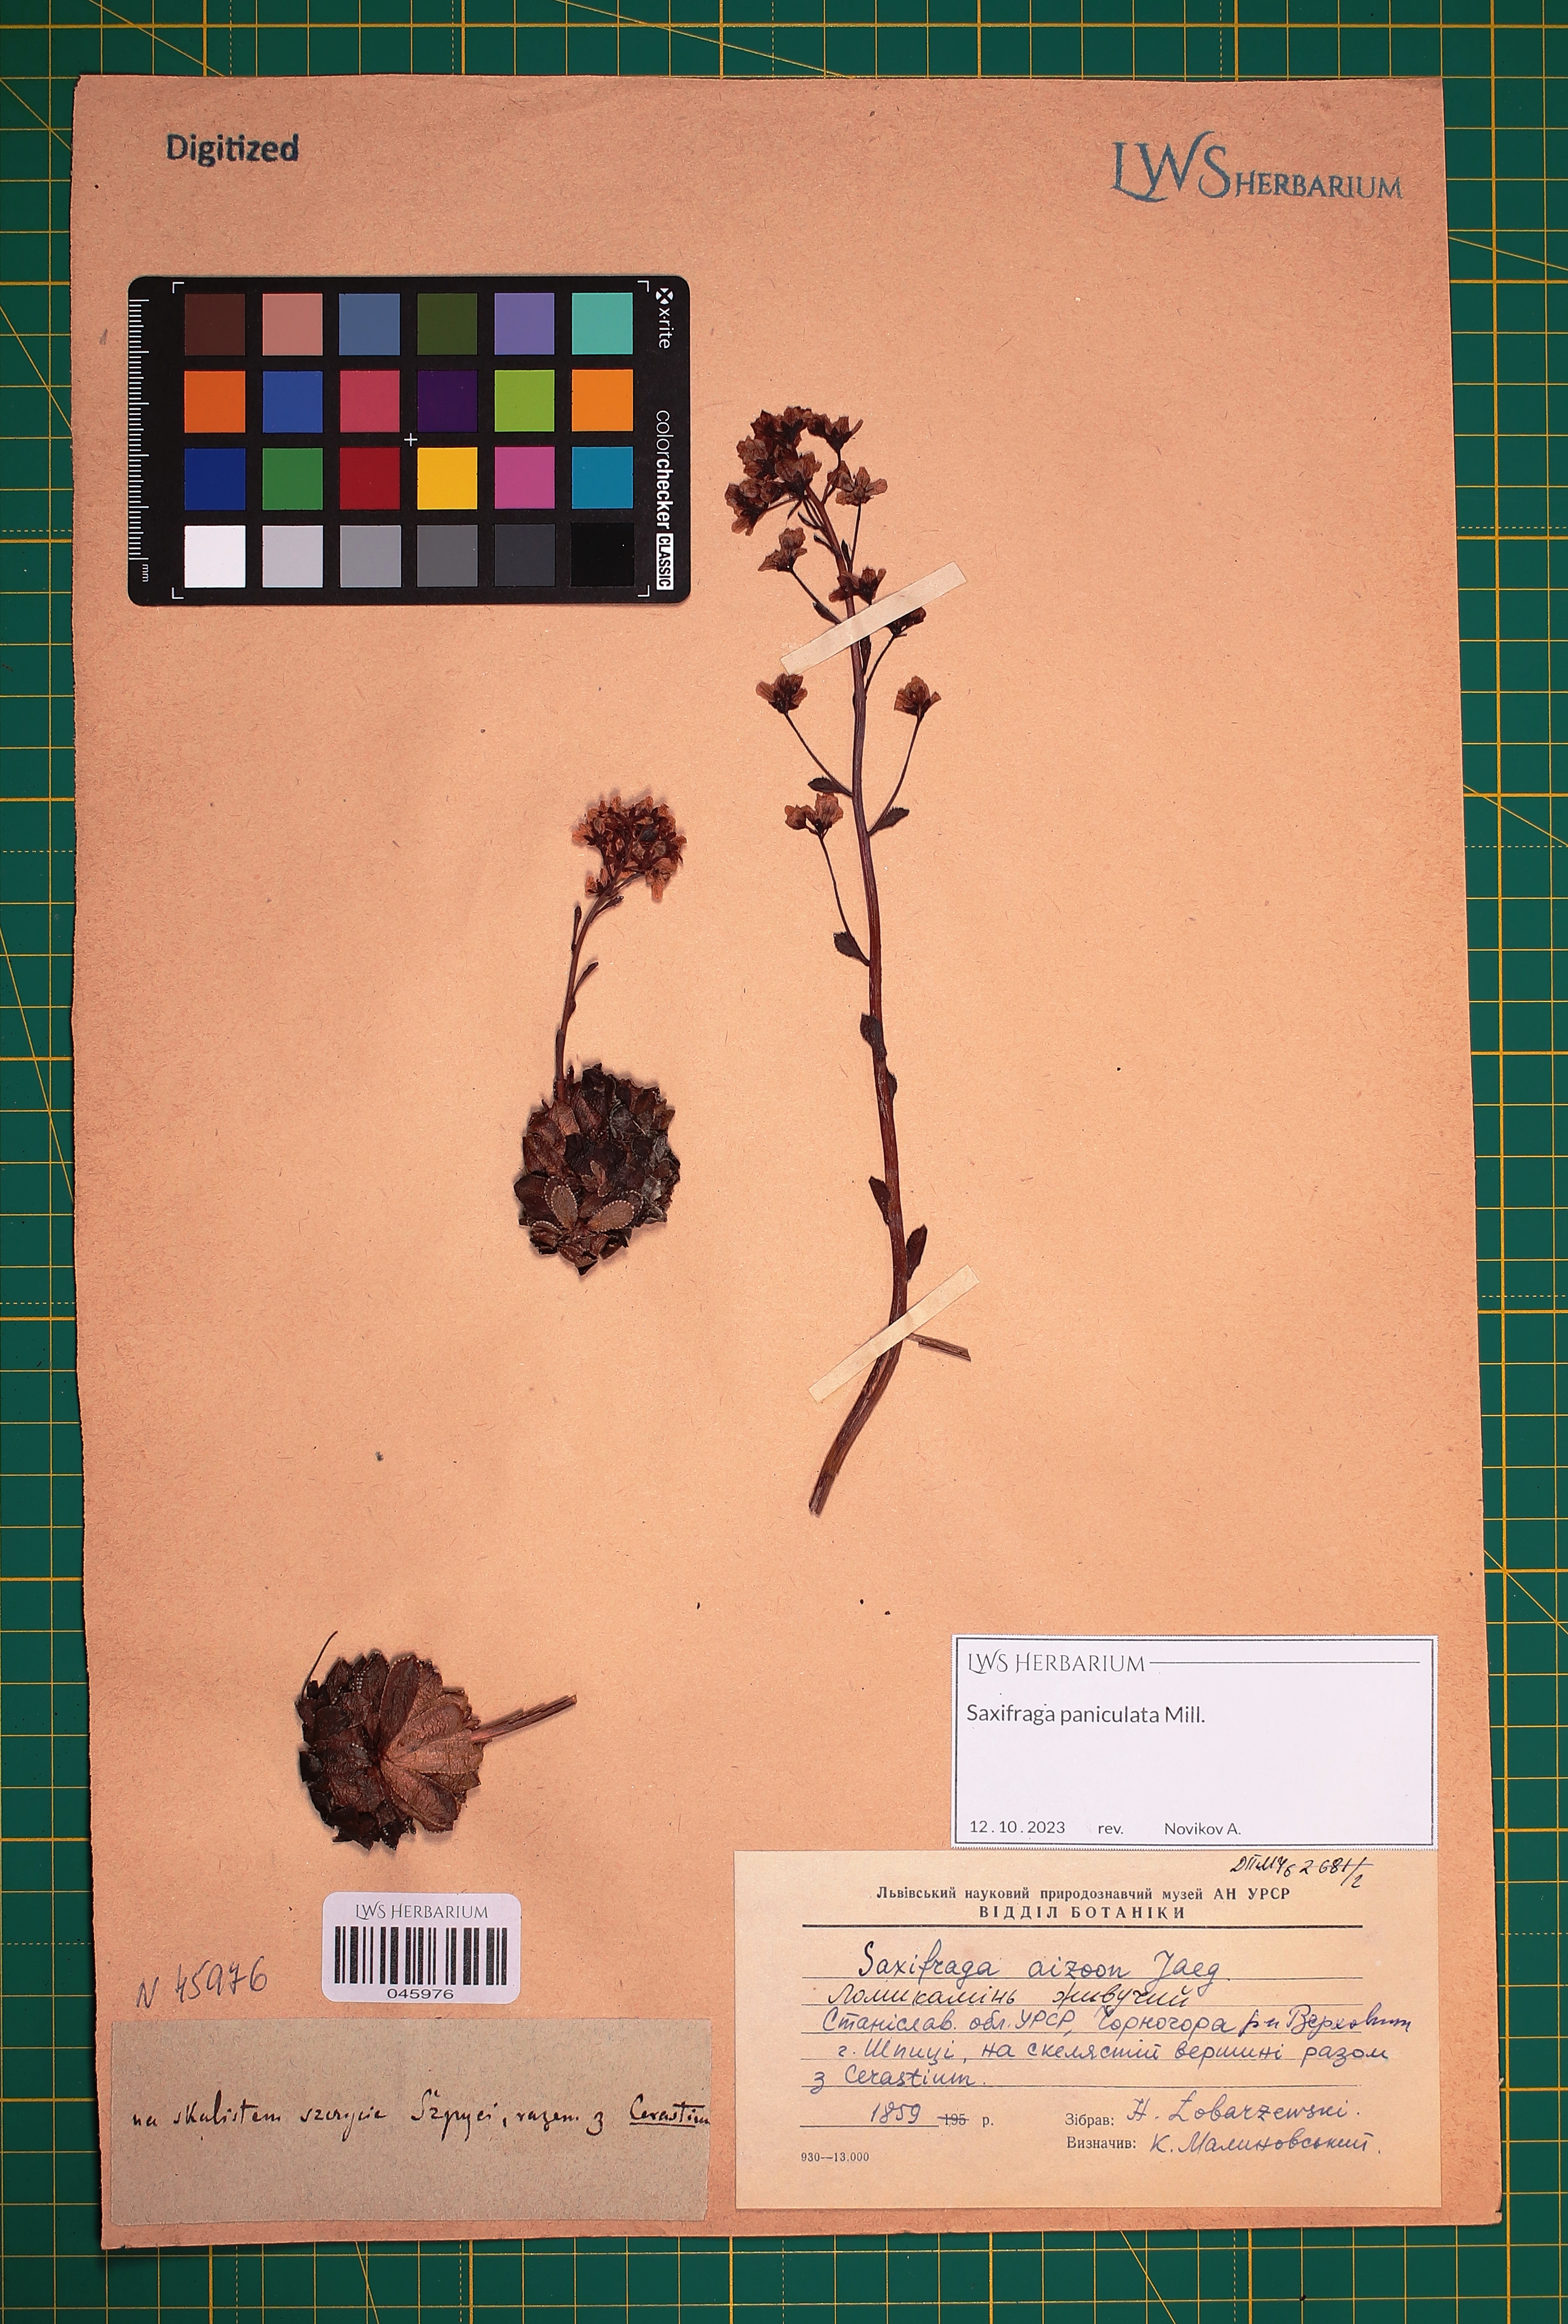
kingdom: Plantae
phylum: Tracheophyta
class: Magnoliopsida
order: Saxifragales
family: Saxifragaceae
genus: Saxifraga
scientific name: Saxifraga paniculata
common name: Livelong saxifrage
